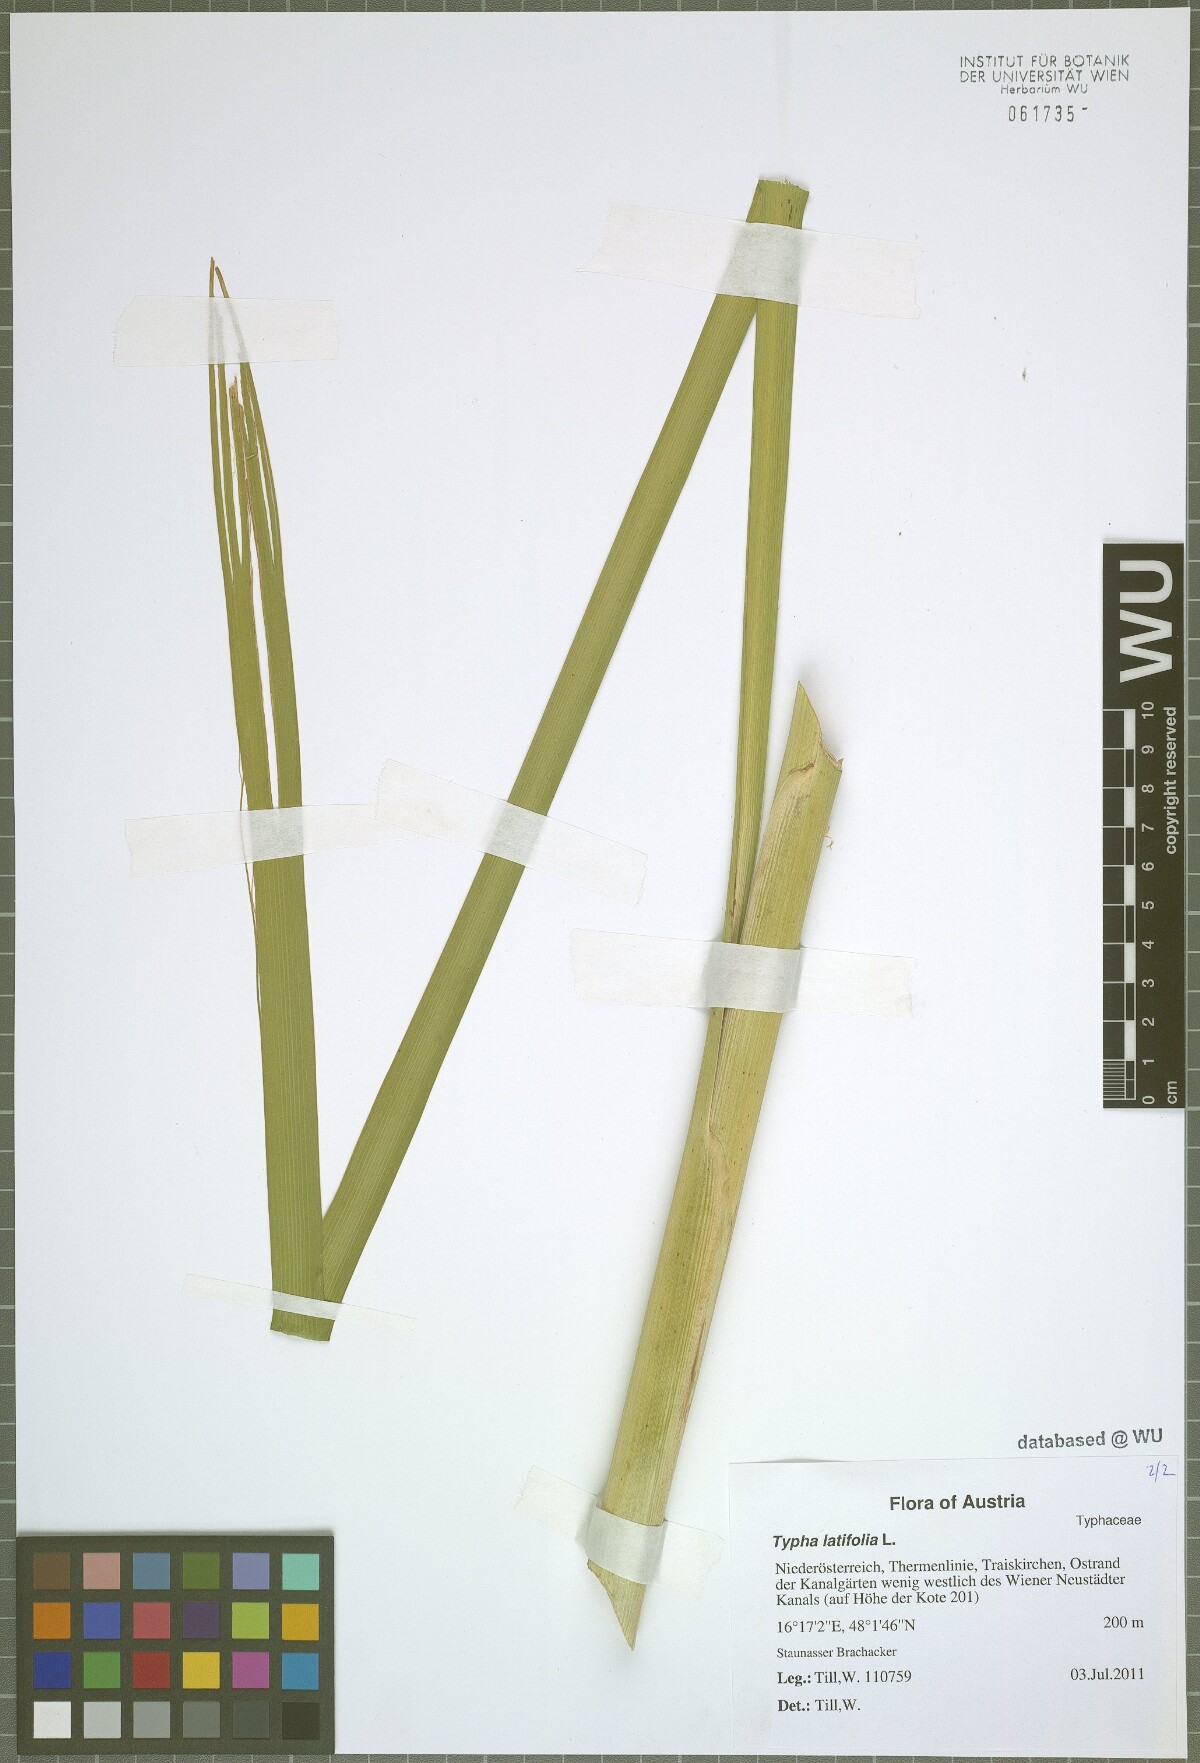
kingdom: Plantae
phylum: Tracheophyta
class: Liliopsida
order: Poales
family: Typhaceae
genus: Typha
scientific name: Typha latifolia
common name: Broadleaf cattail
